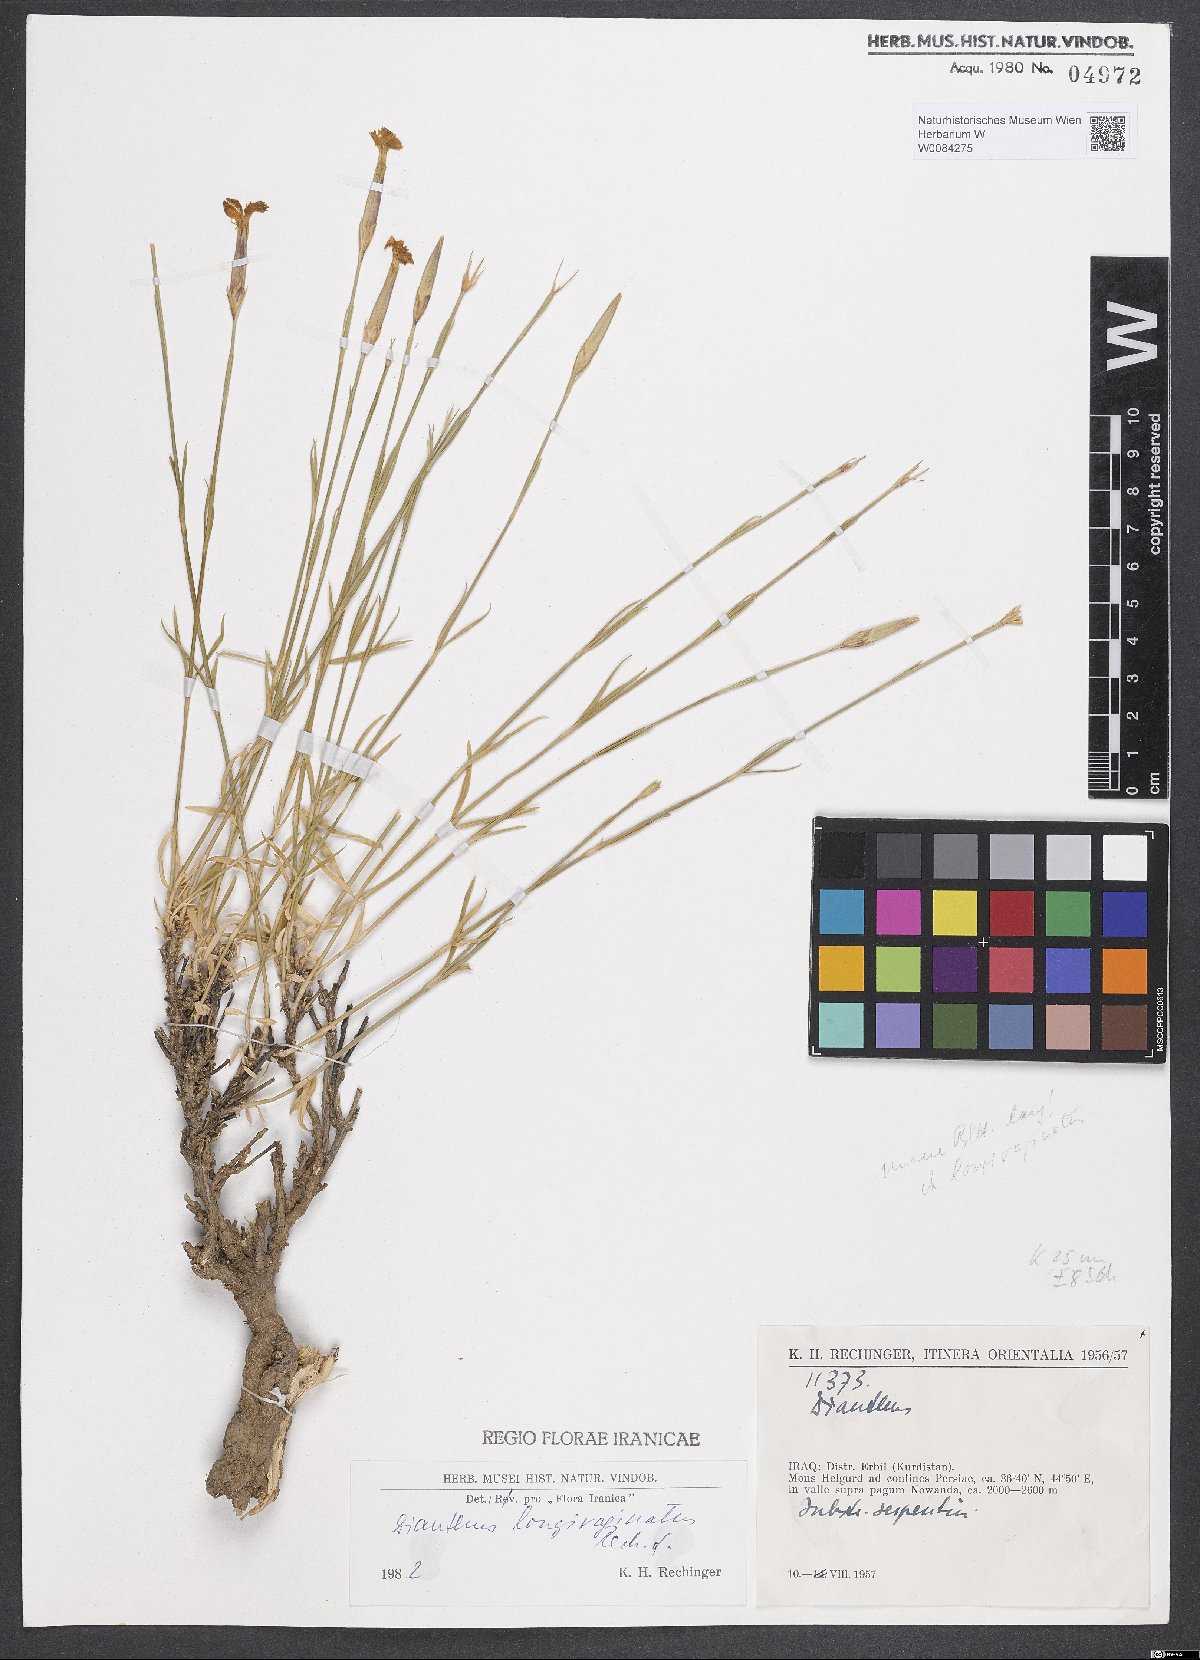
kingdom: Plantae
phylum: Tracheophyta
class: Magnoliopsida
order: Caryophyllales
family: Caryophyllaceae
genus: Dianthus
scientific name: Dianthus longivaginatus
